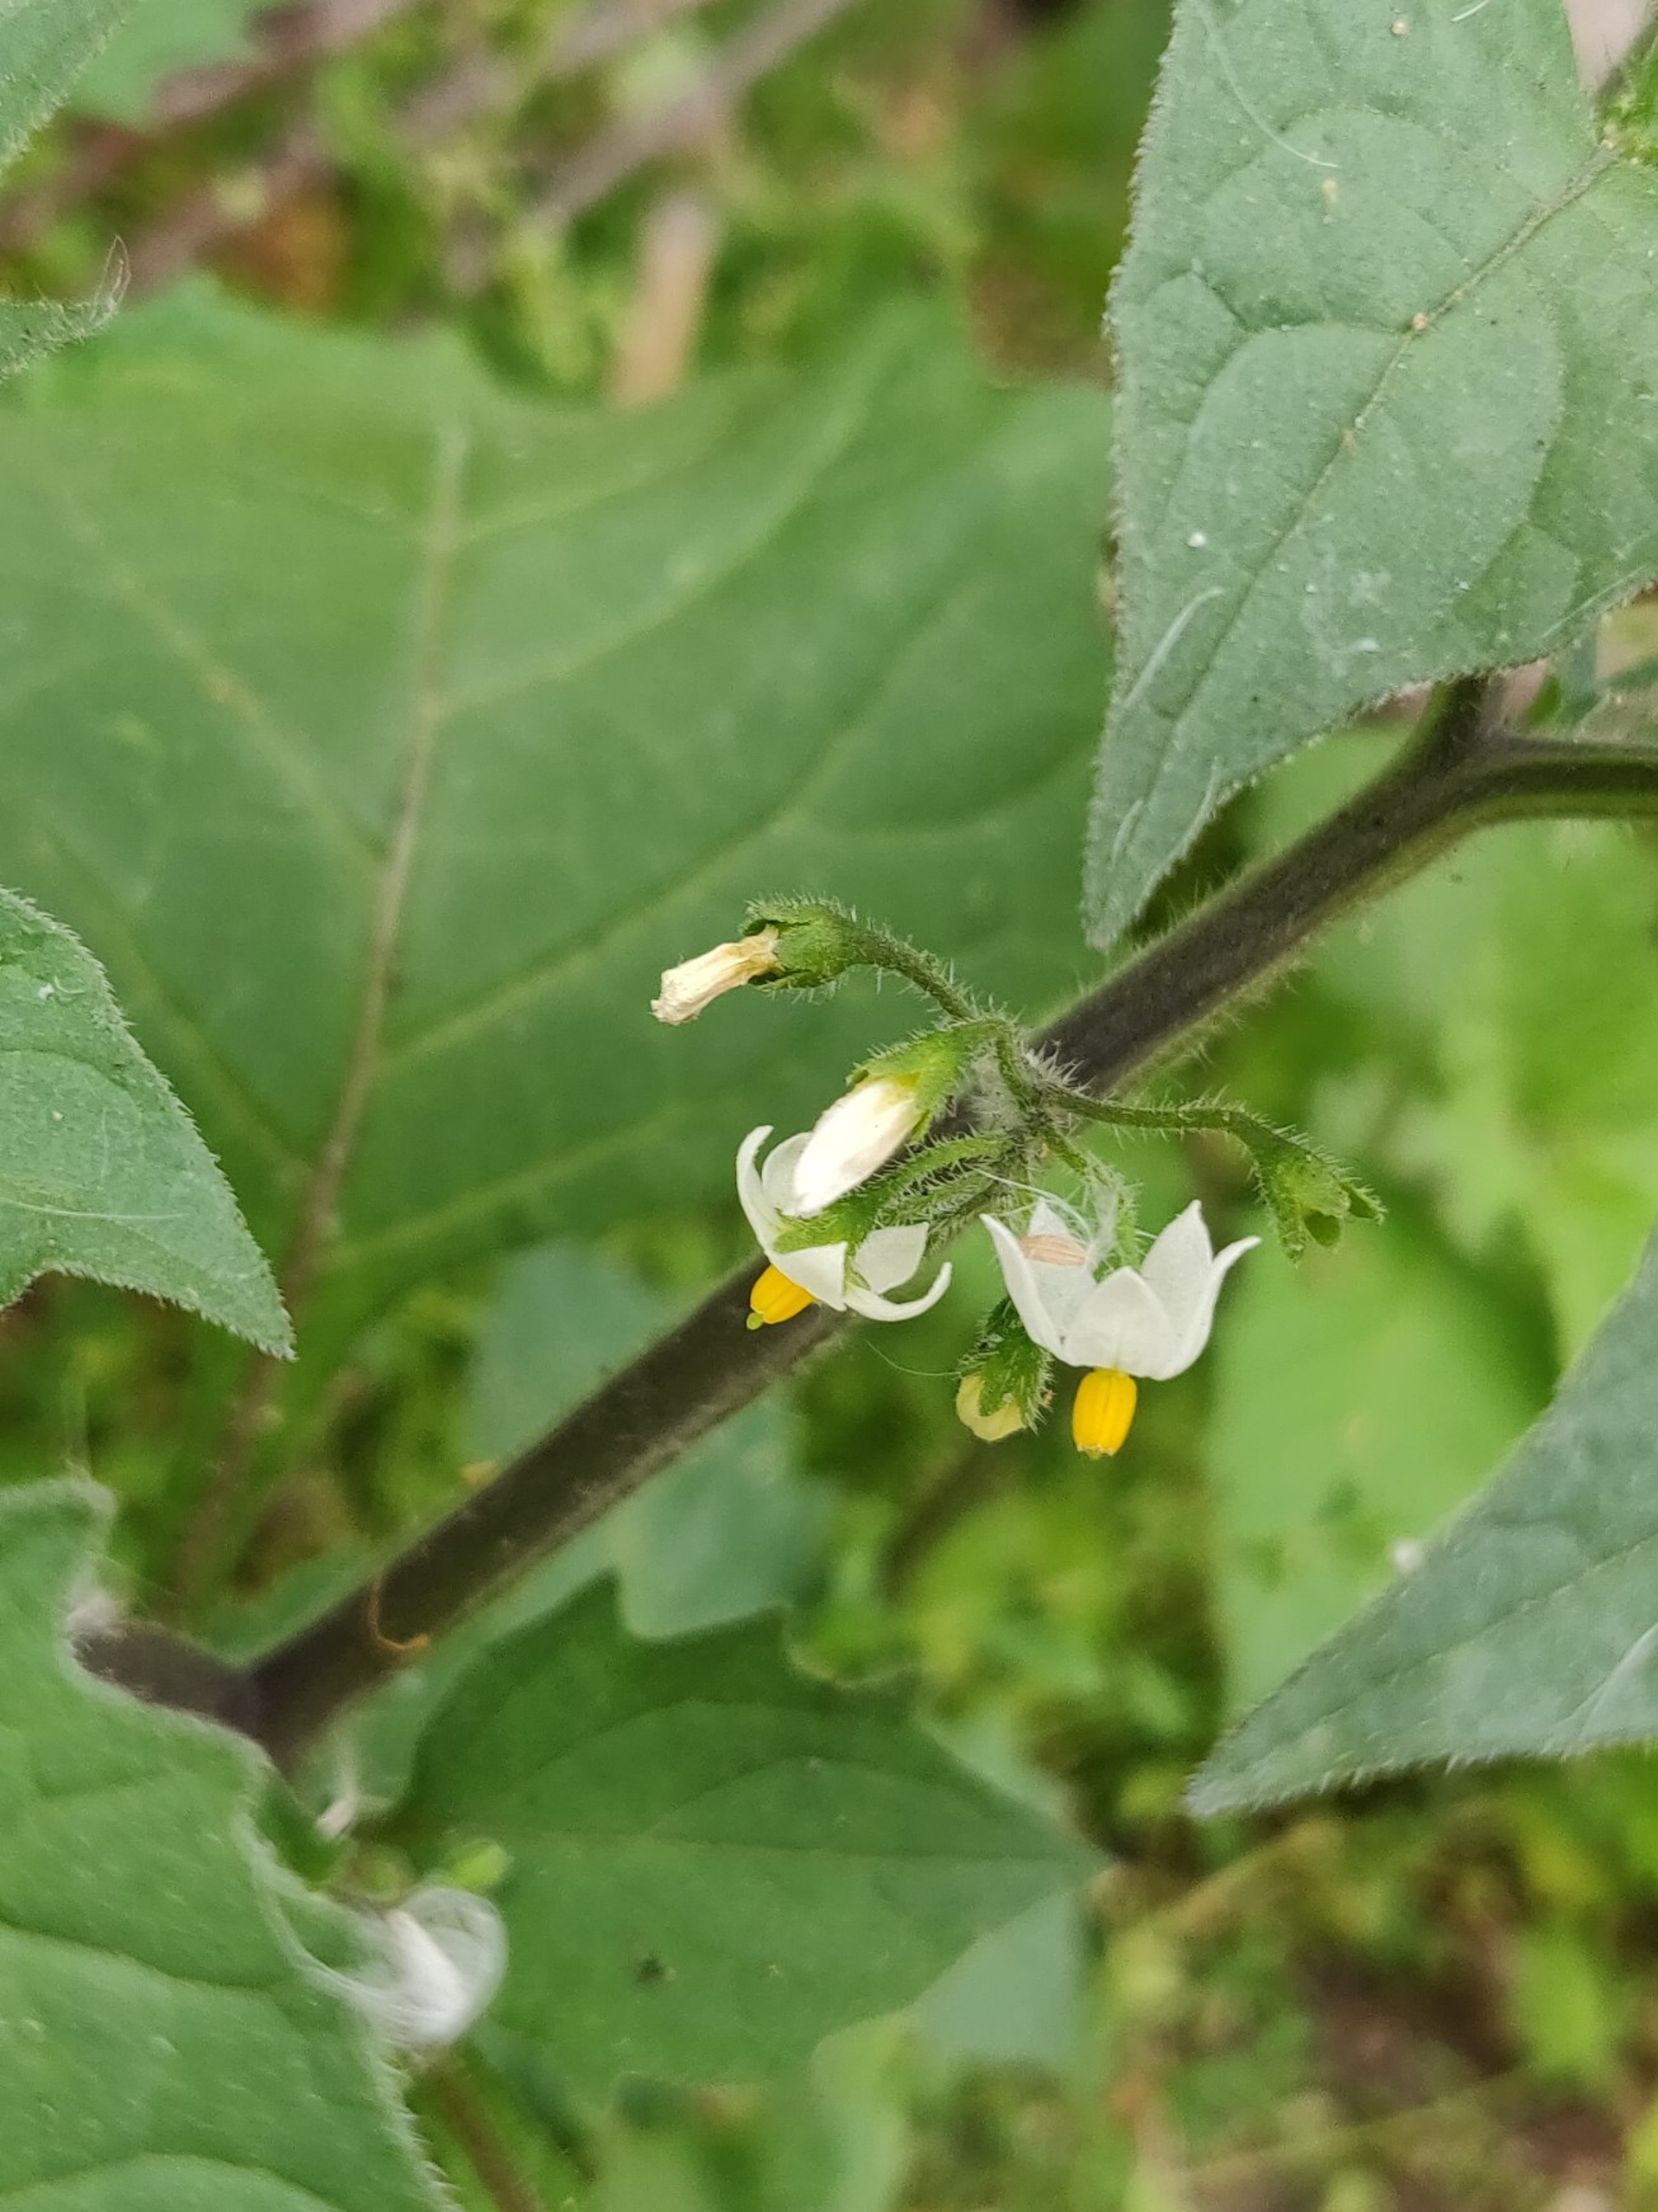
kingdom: Plantae
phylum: Tracheophyta
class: Magnoliopsida
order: Solanales
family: Solanaceae
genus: Solanum
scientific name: Solanum decipiens
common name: Kirtel-natskygge
